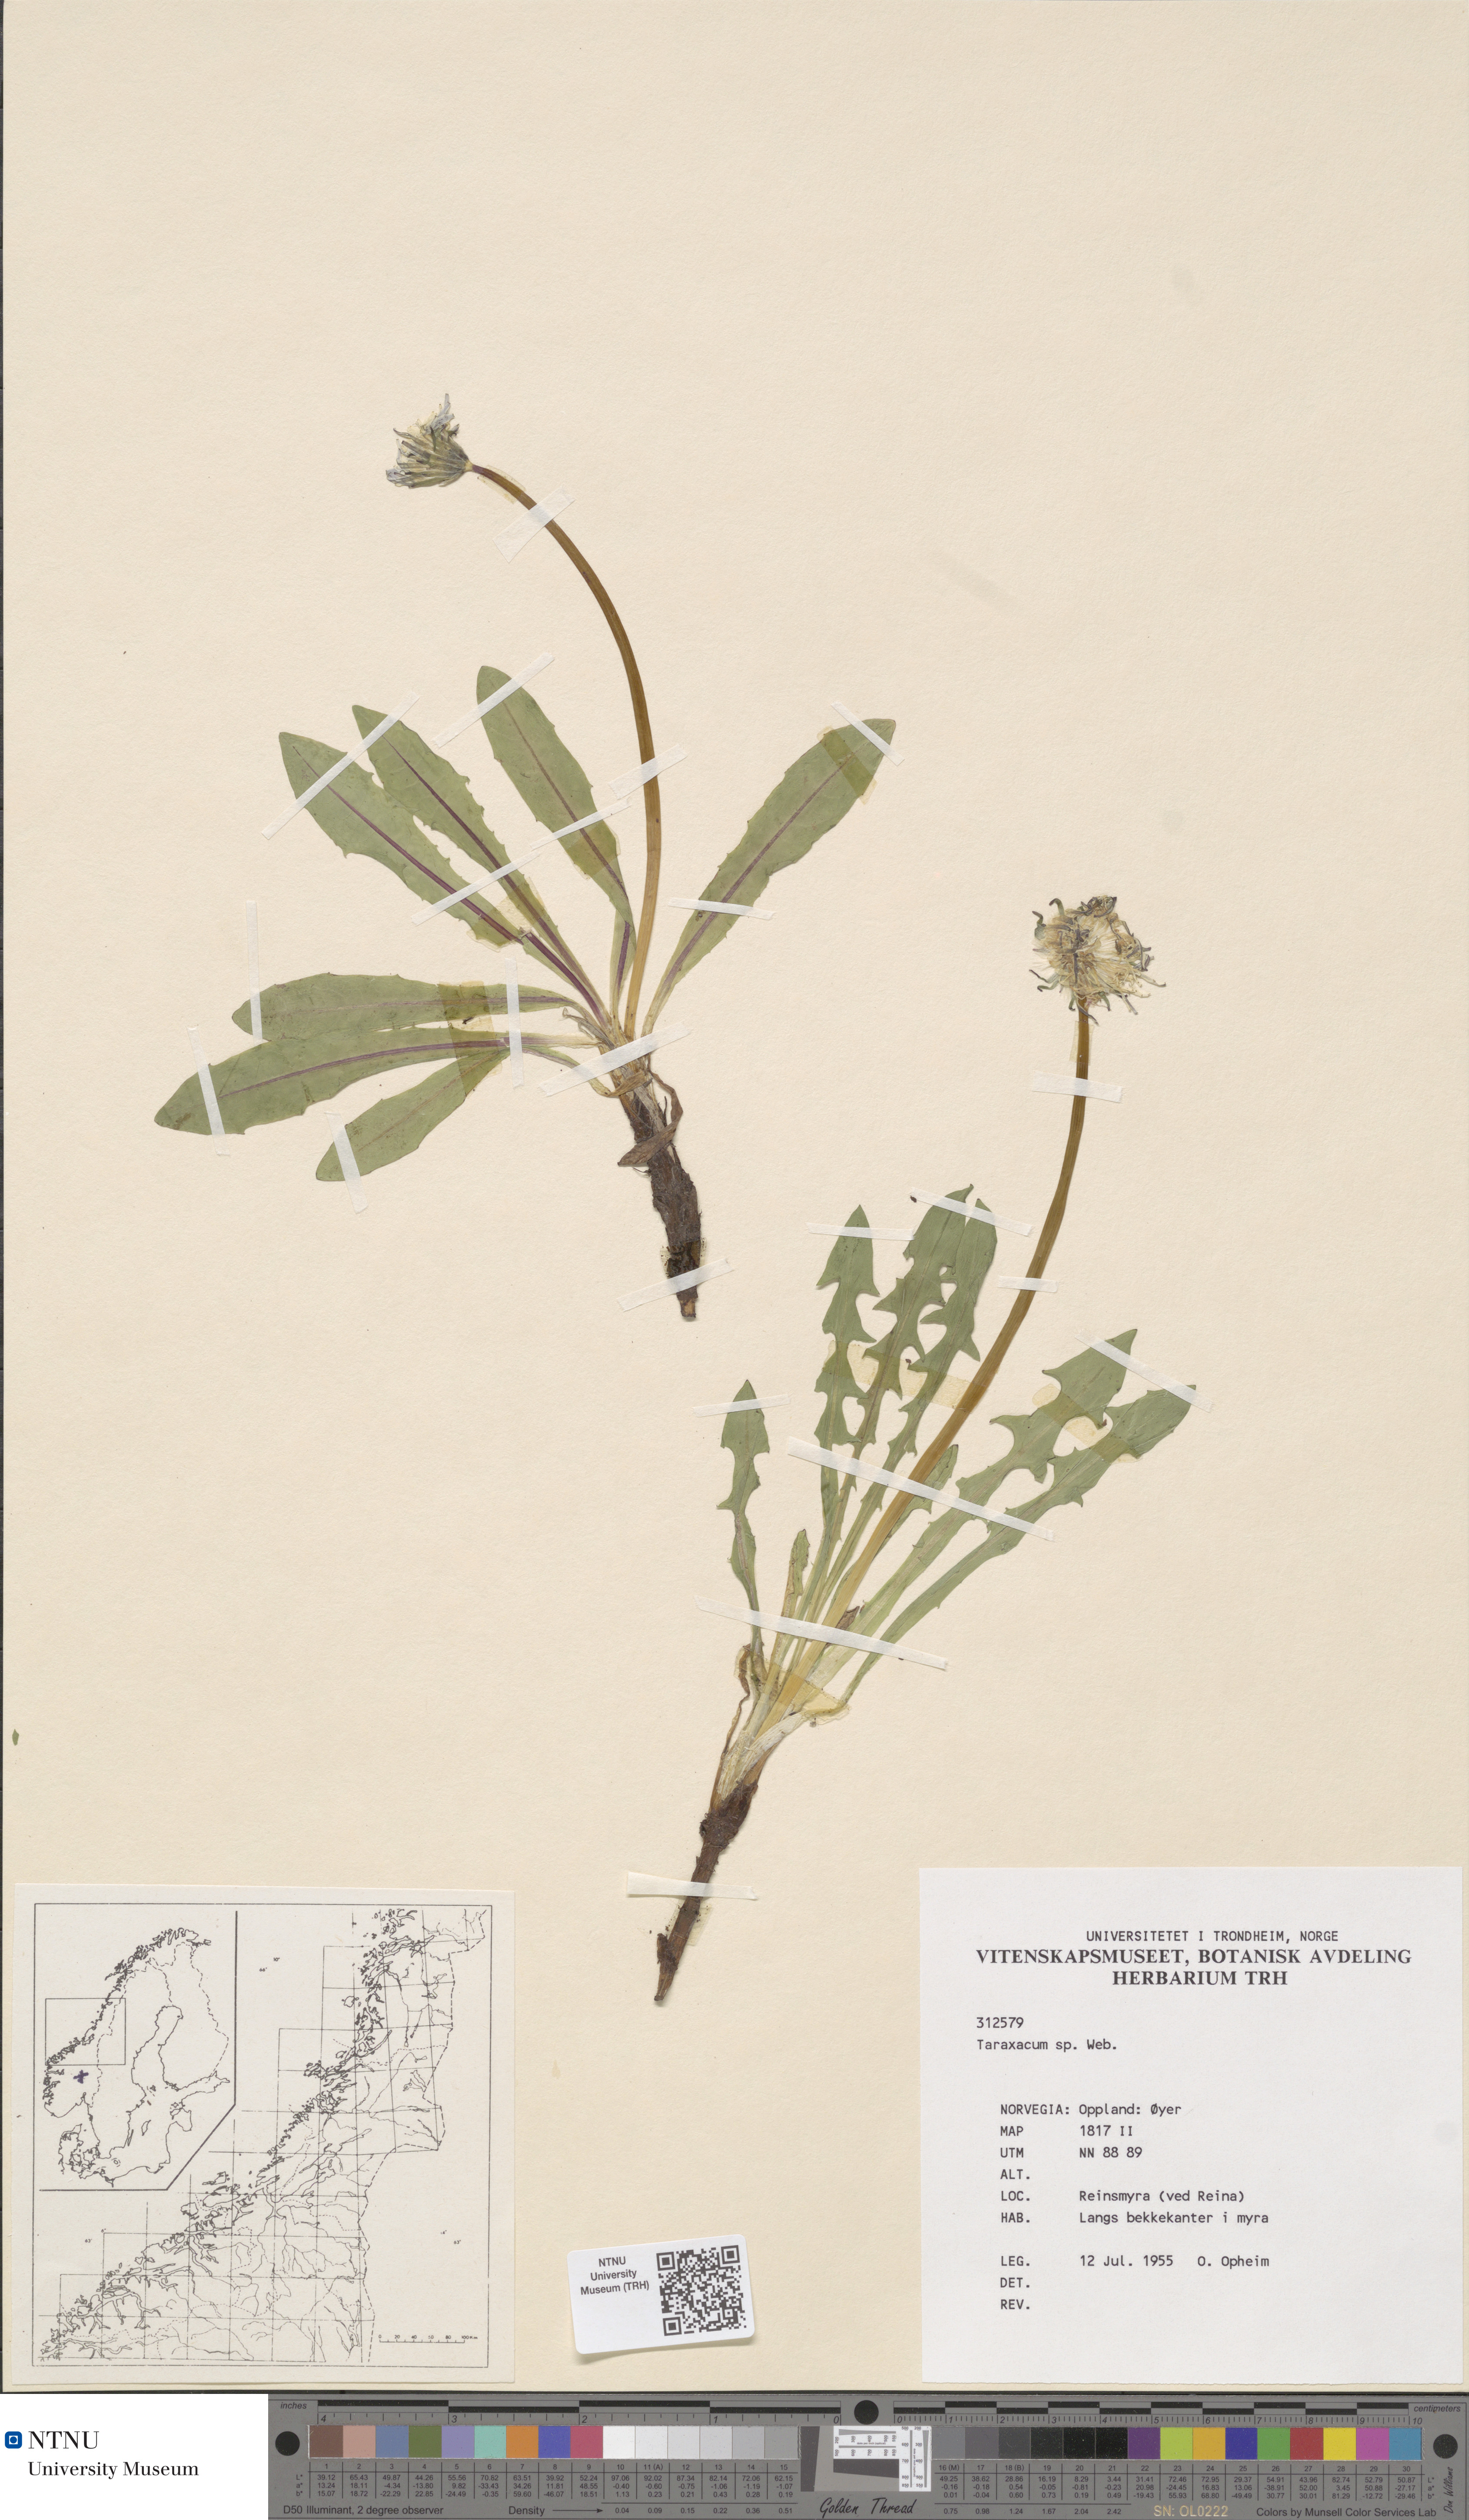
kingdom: Plantae
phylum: Tracheophyta
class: Magnoliopsida
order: Asterales
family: Asteraceae
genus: Taraxacum
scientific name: Taraxacum
